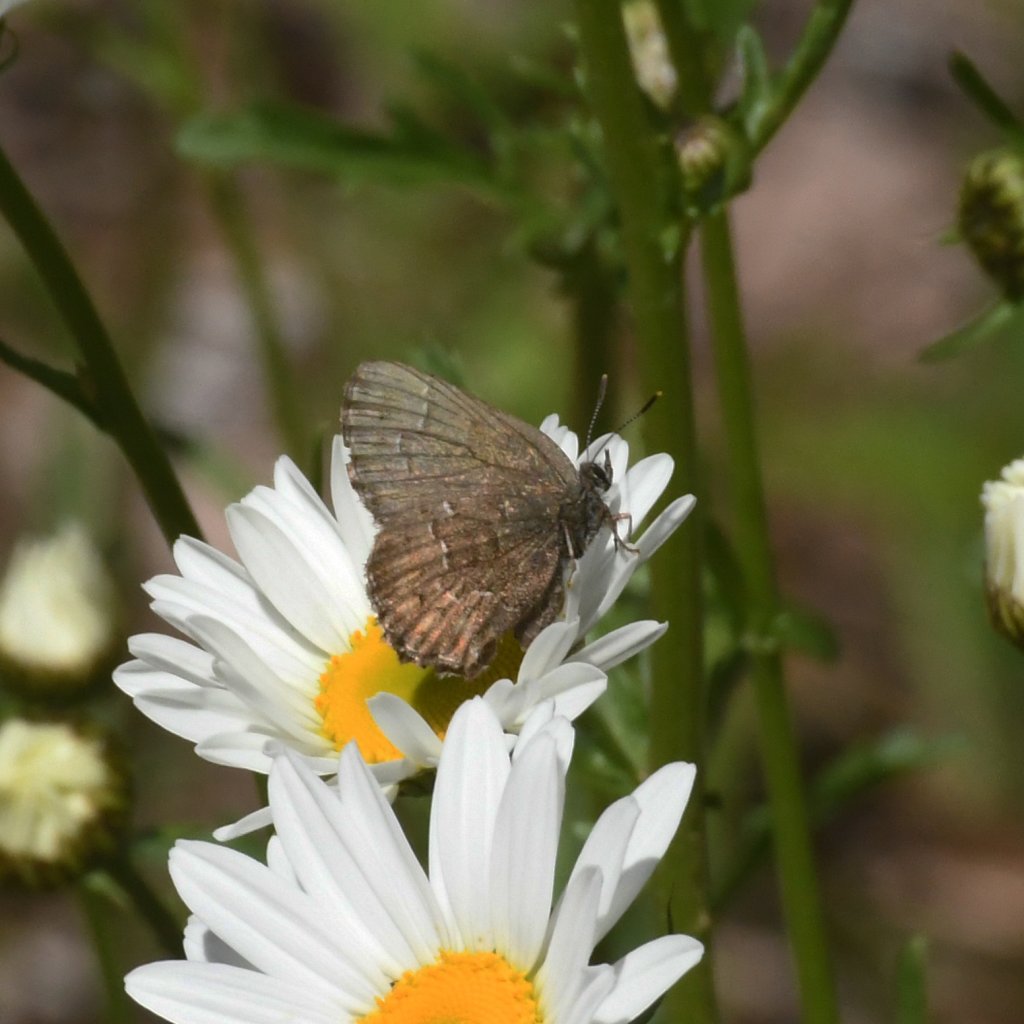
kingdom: Animalia
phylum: Arthropoda
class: Insecta
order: Lepidoptera
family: Lycaenidae
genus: Incisalia
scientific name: Incisalia niphon
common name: Eastern Pine Elfin
